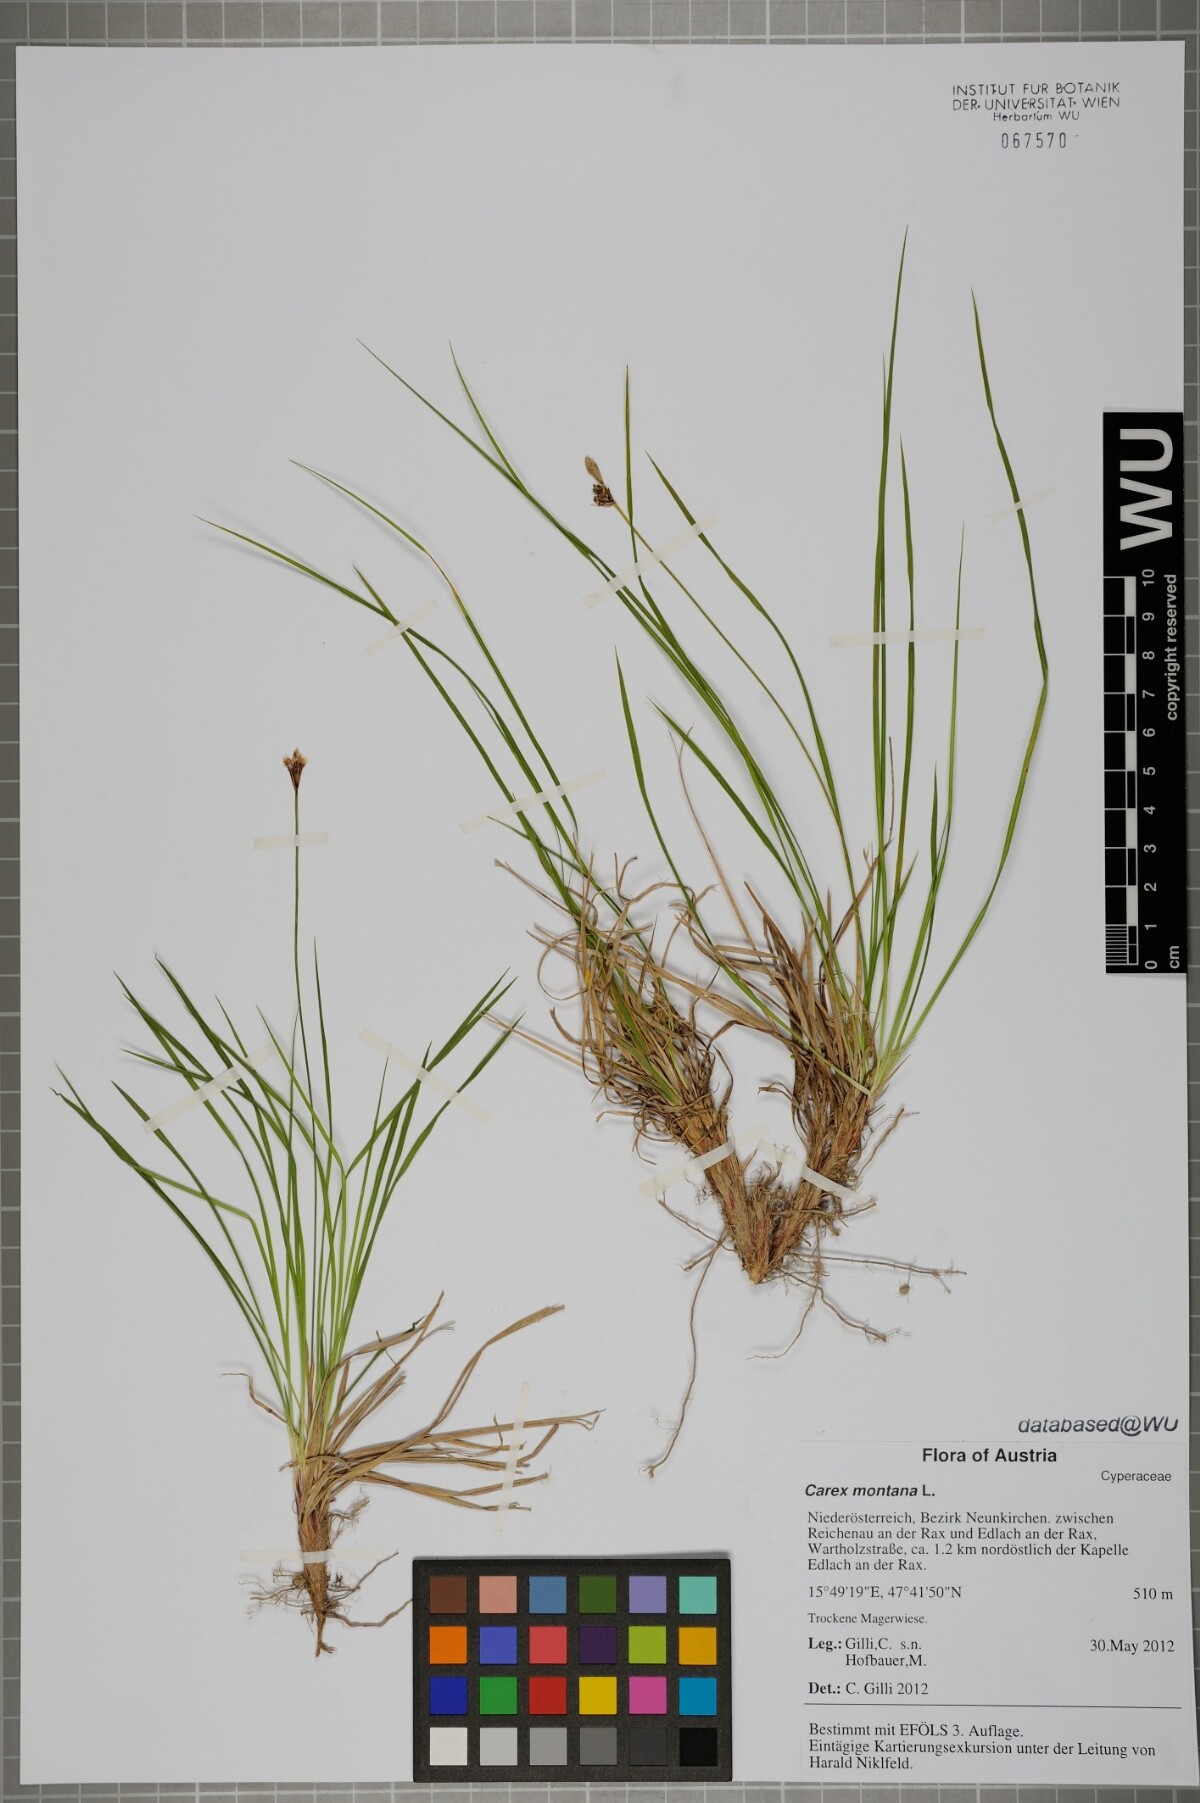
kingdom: Plantae
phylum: Tracheophyta
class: Liliopsida
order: Poales
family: Cyperaceae
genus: Carex
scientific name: Carex montana
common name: Soft-leaved sedge
